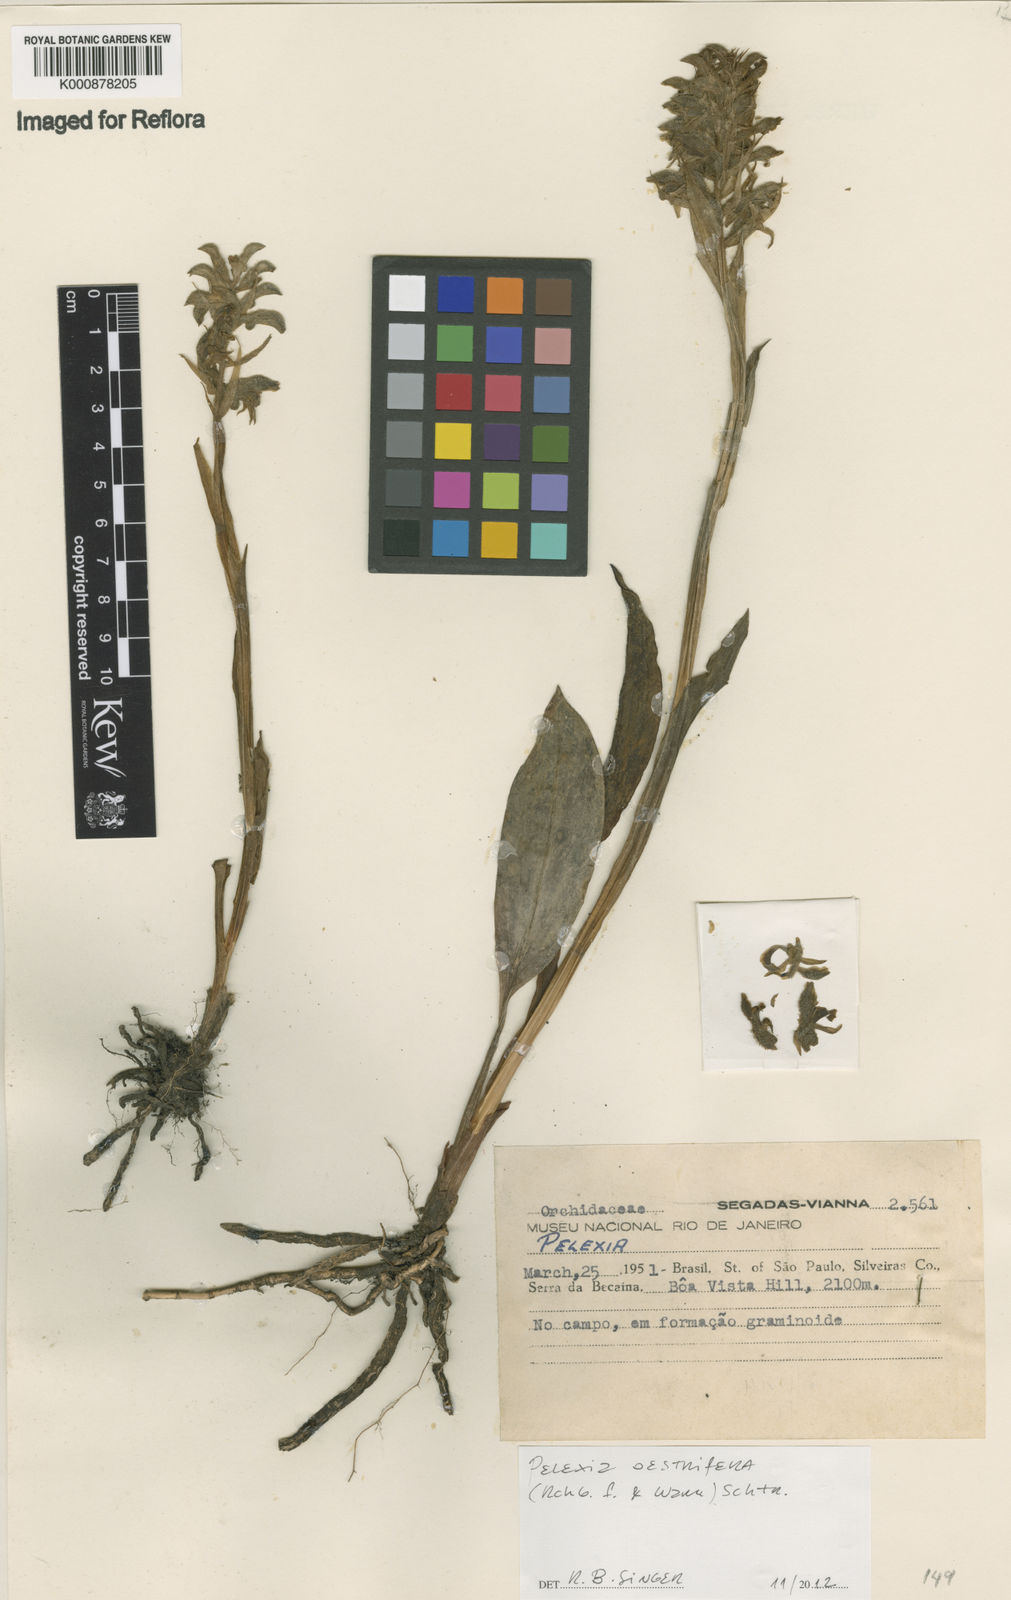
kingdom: Plantae
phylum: Tracheophyta
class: Liliopsida
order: Asparagales
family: Orchidaceae
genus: Pelexia
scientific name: Pelexia oestrifera
